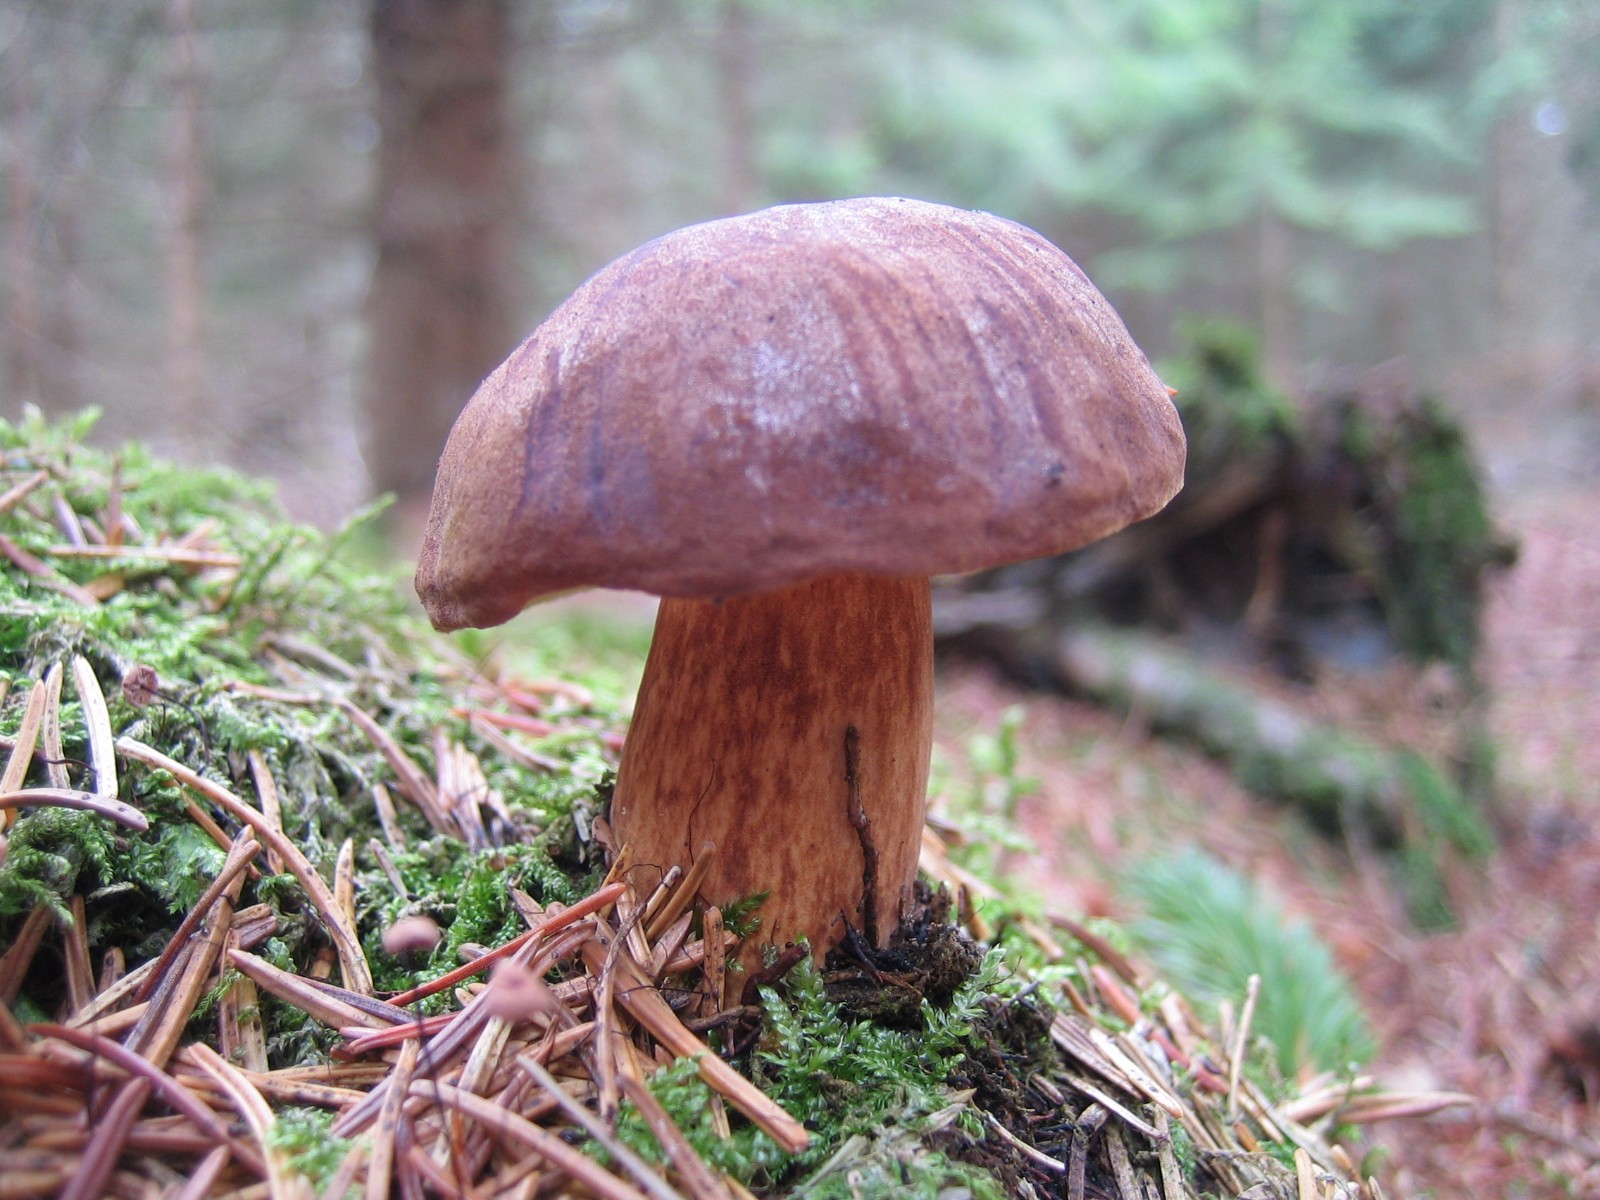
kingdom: Fungi
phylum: Basidiomycota
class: Agaricomycetes
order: Boletales
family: Boletaceae
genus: Imleria
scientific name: Imleria badia
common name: brunstokket rørhat
